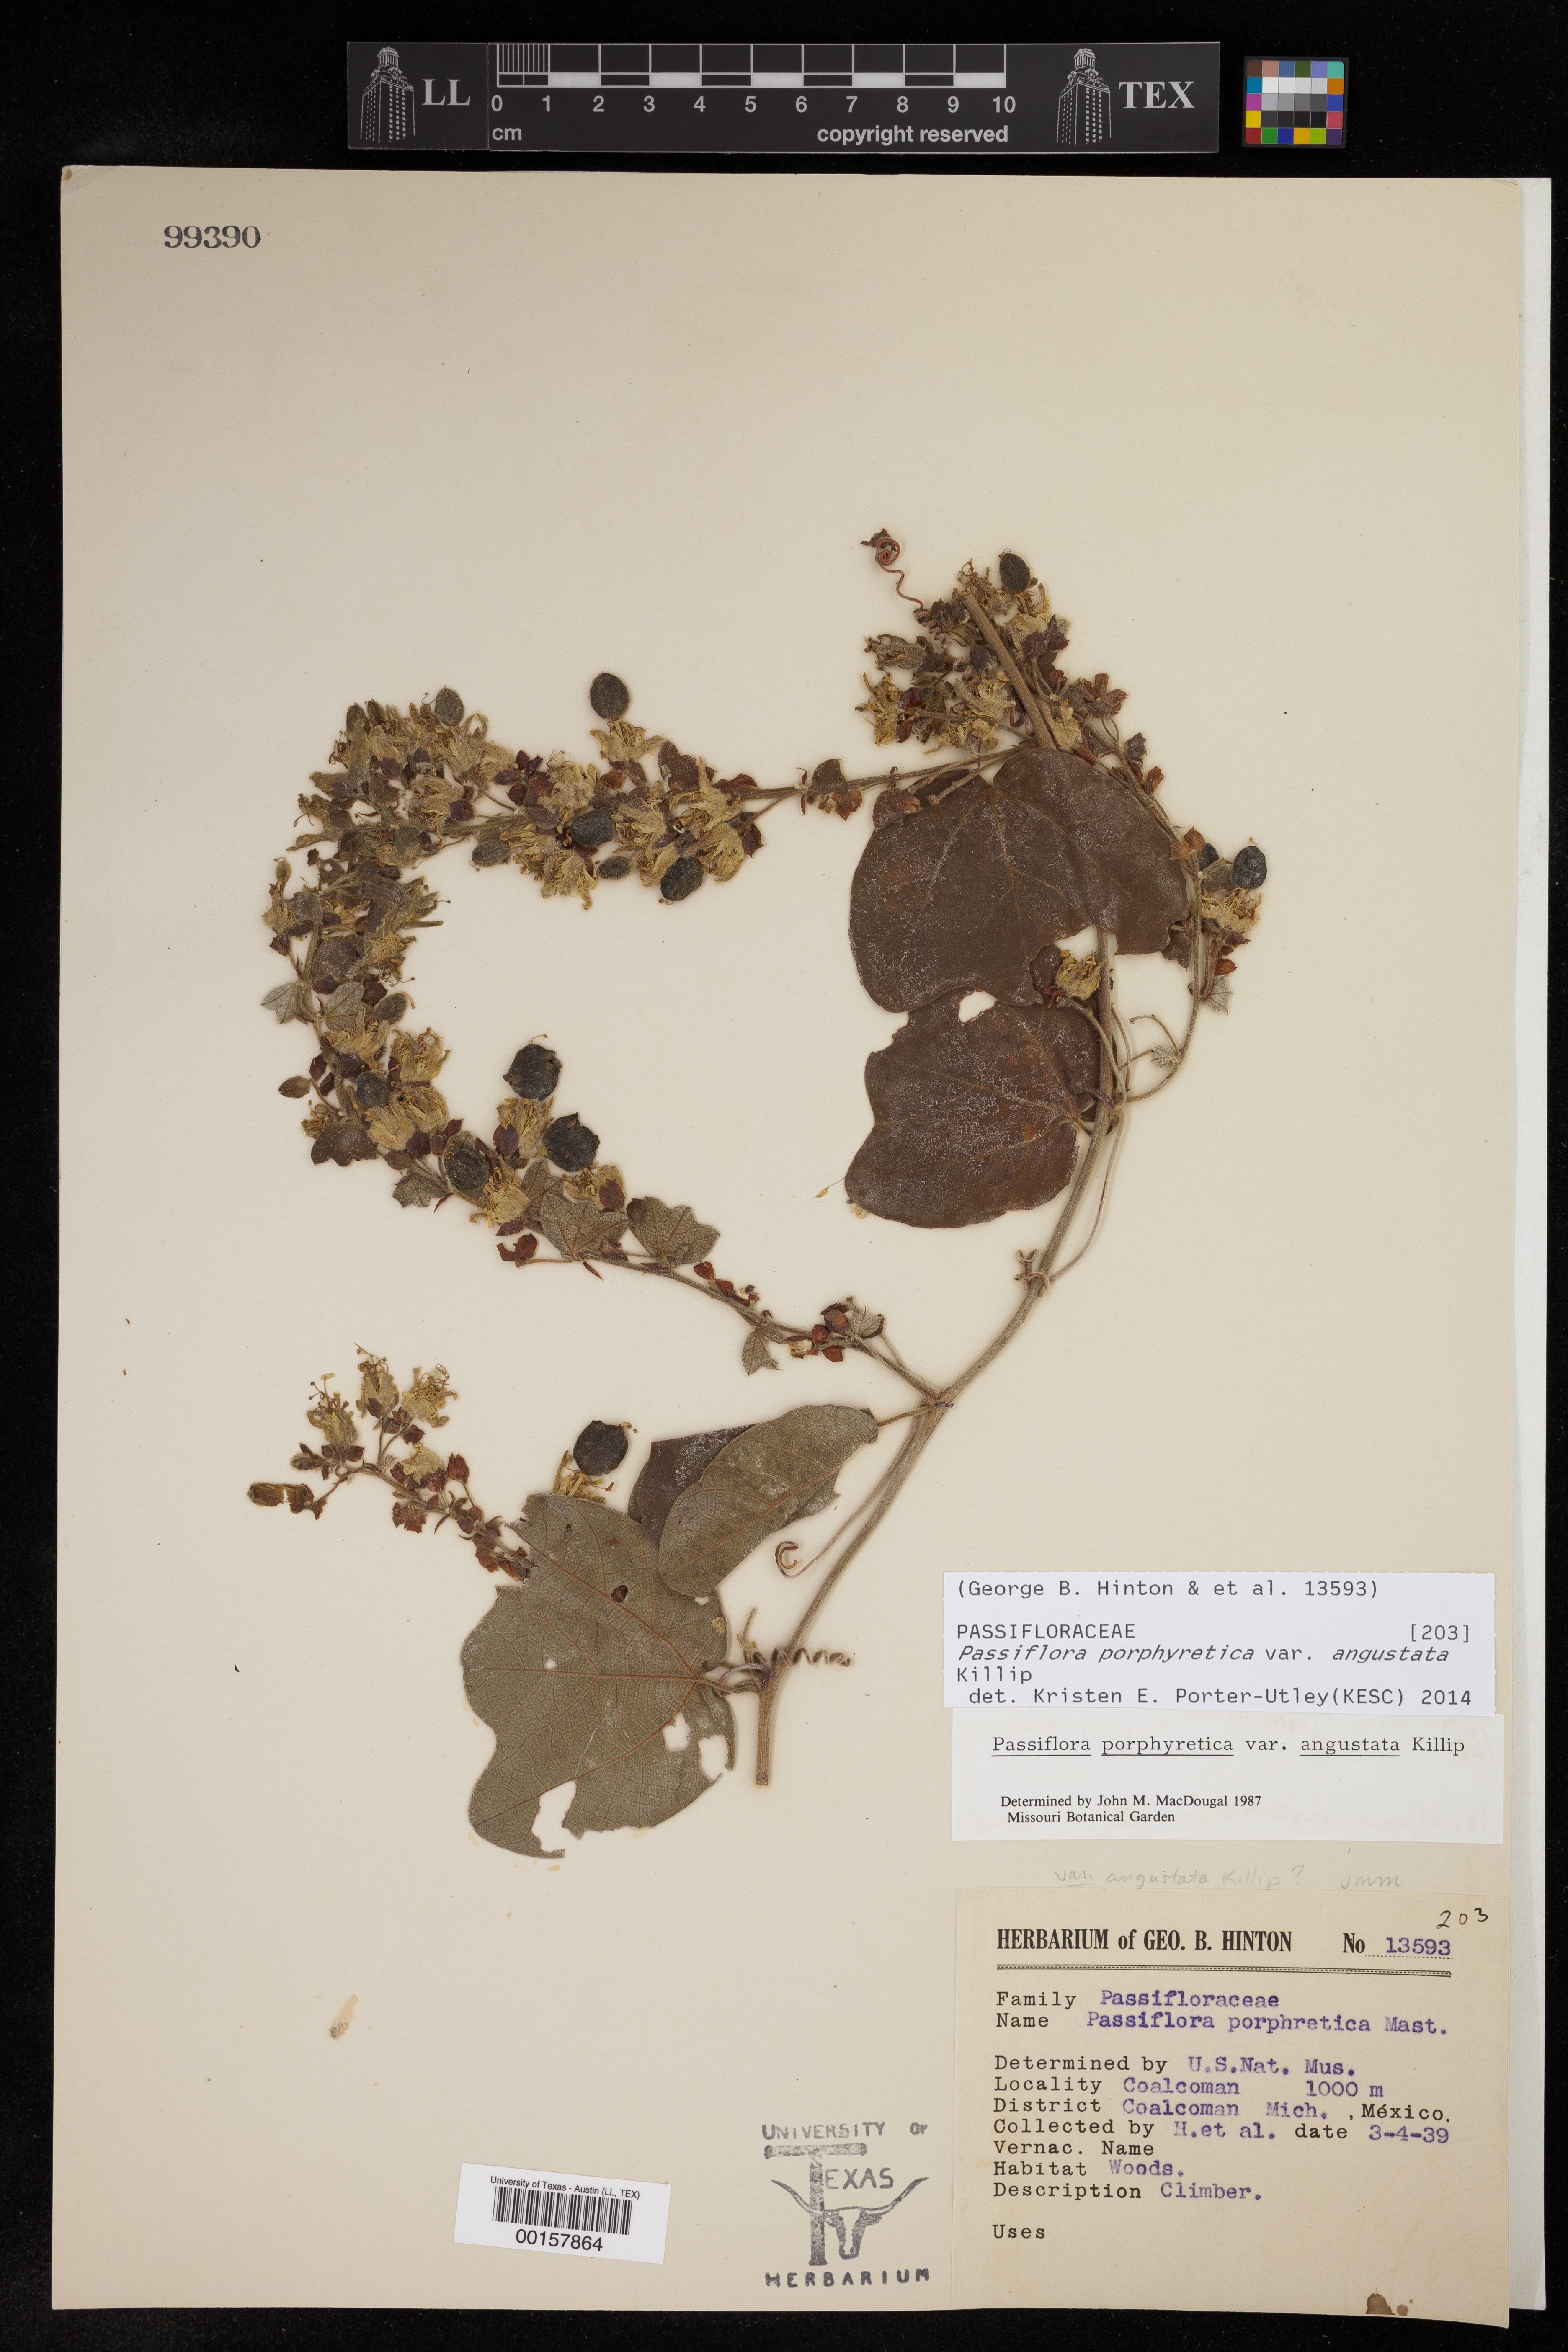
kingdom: Plantae
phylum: Tracheophyta
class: Magnoliopsida
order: Malpighiales
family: Passifloraceae
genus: Passiflora
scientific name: Passiflora porphyretica
